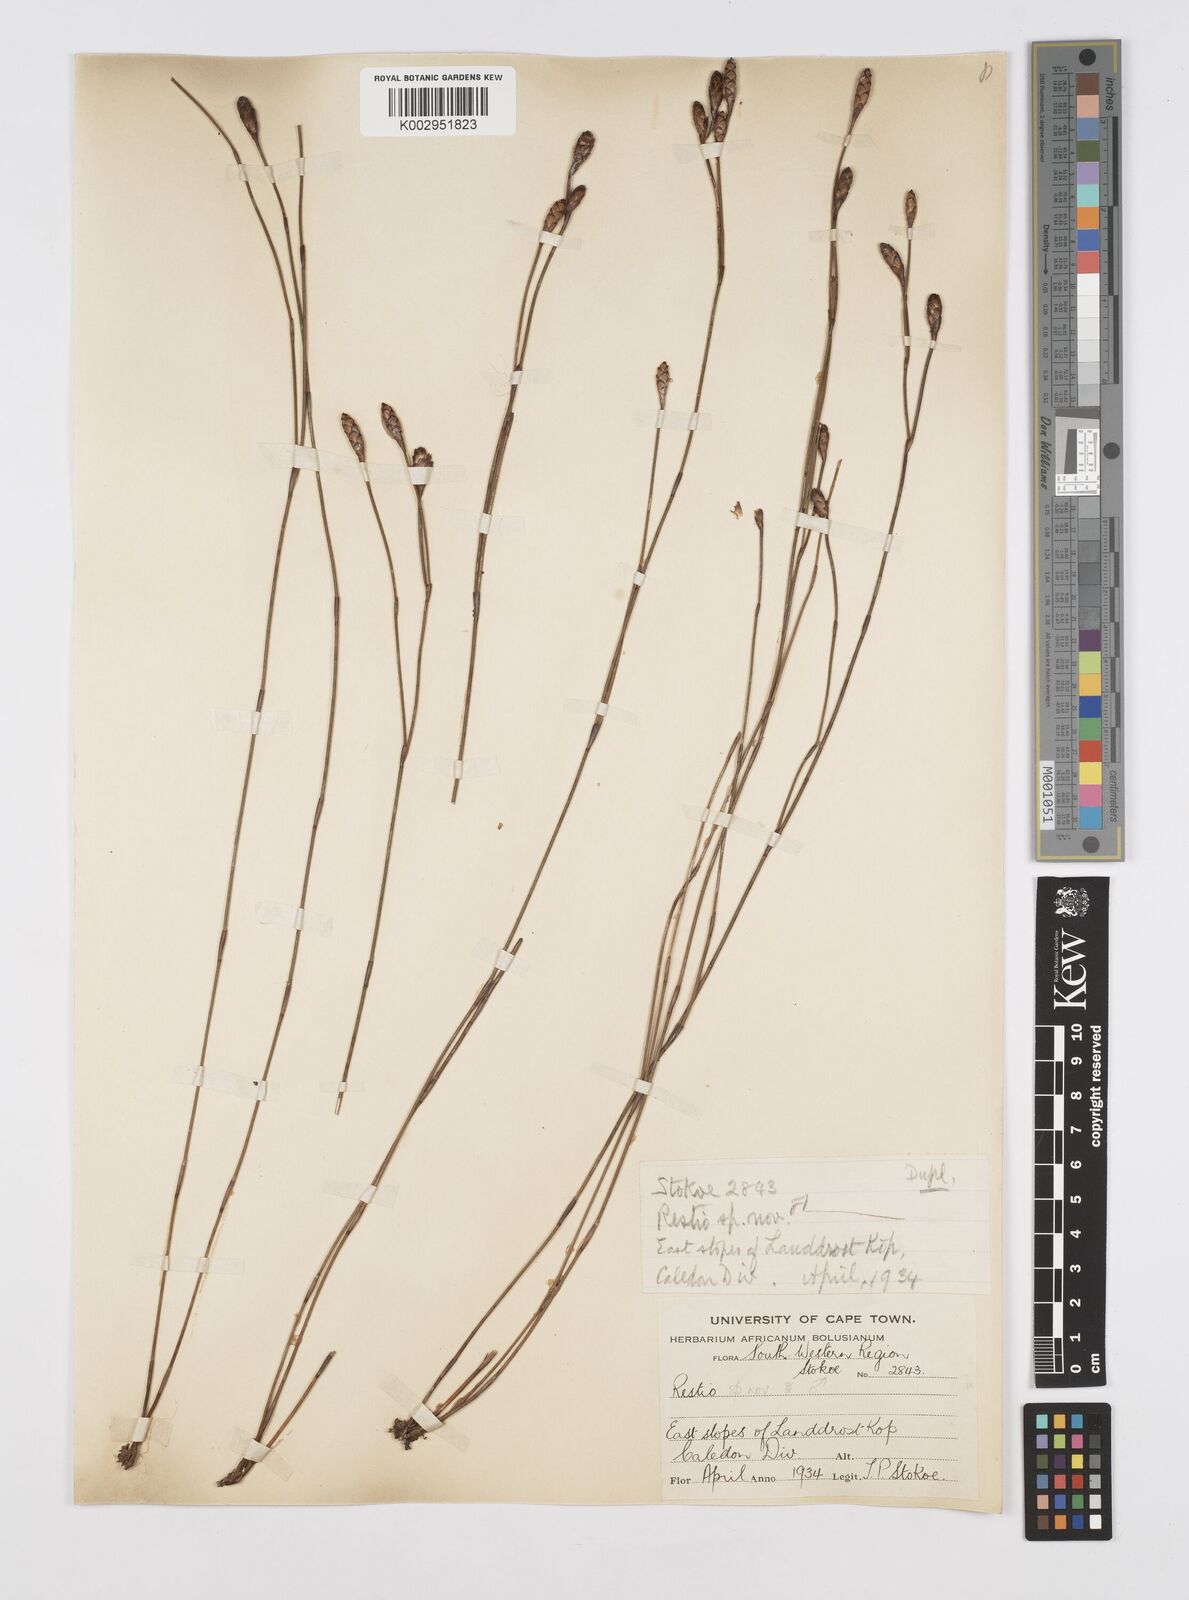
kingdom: Plantae
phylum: Tracheophyta
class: Liliopsida
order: Poales
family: Restionaceae
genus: Restio
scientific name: Restio
